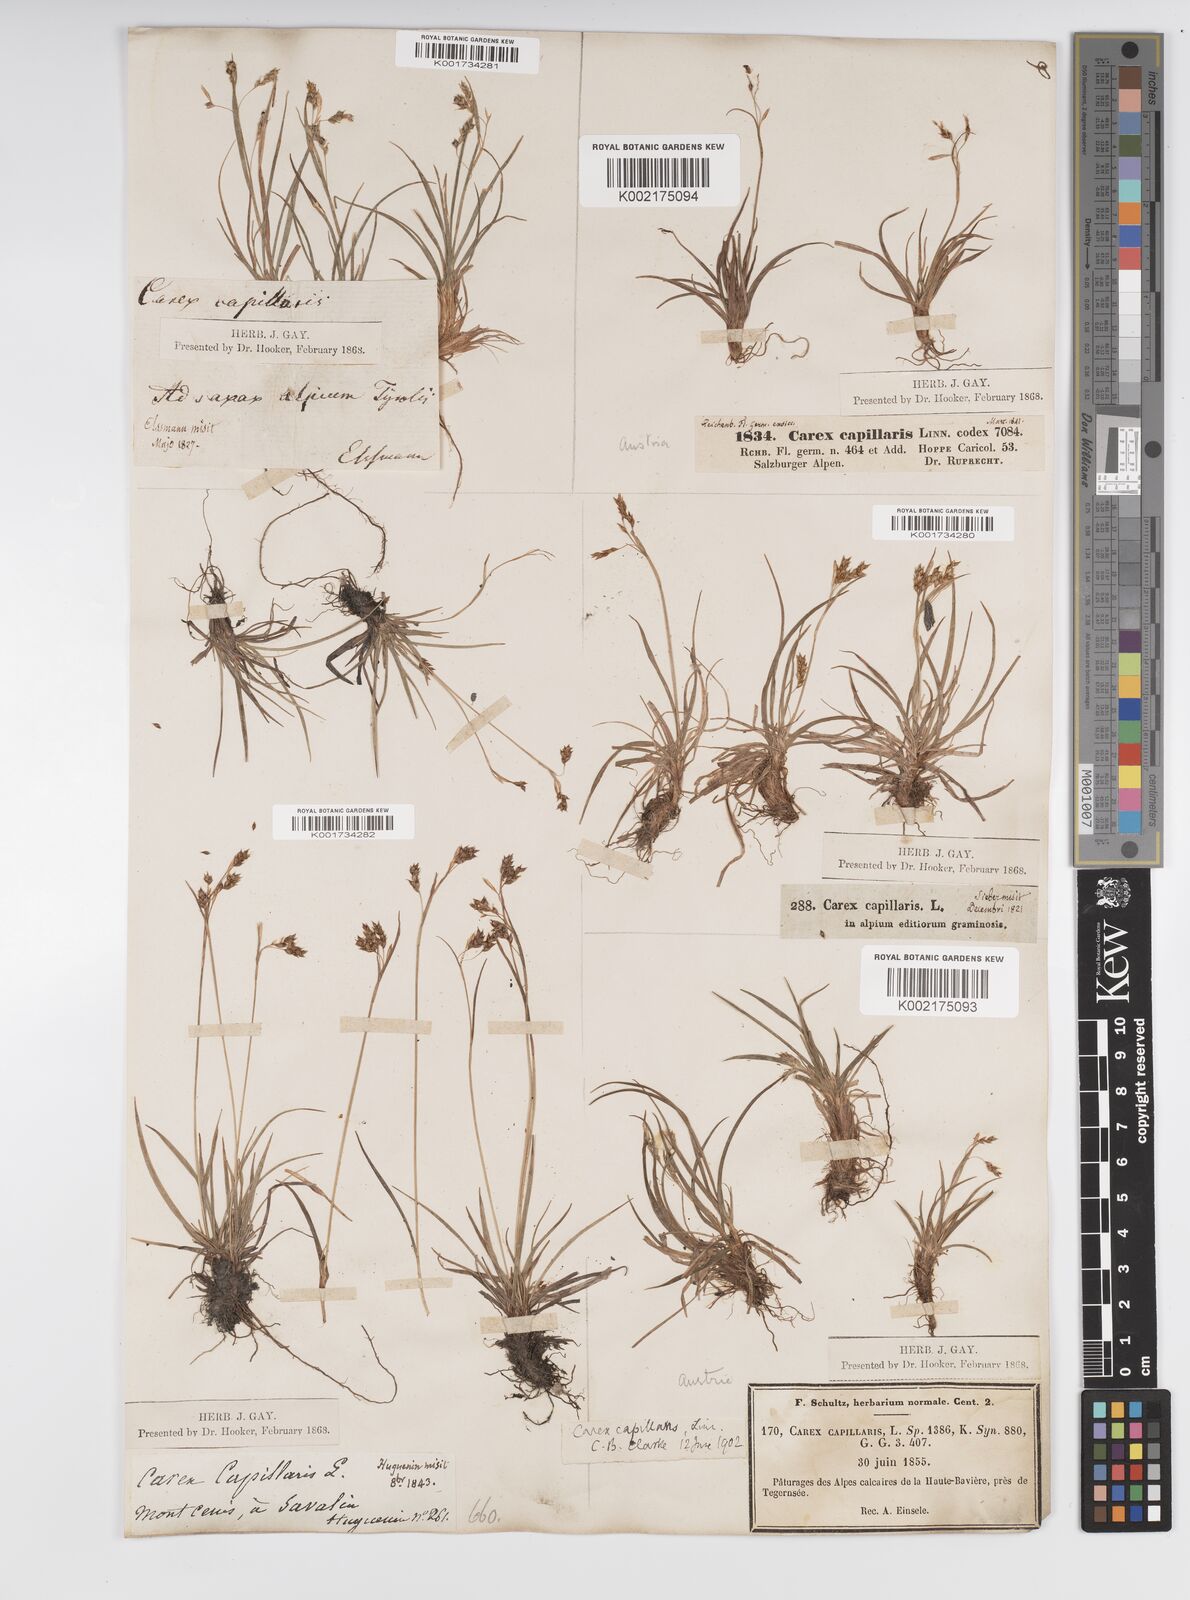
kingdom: Plantae
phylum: Tracheophyta
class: Liliopsida
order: Poales
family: Cyperaceae
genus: Carex
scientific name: Carex capillaris
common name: Hair sedge
